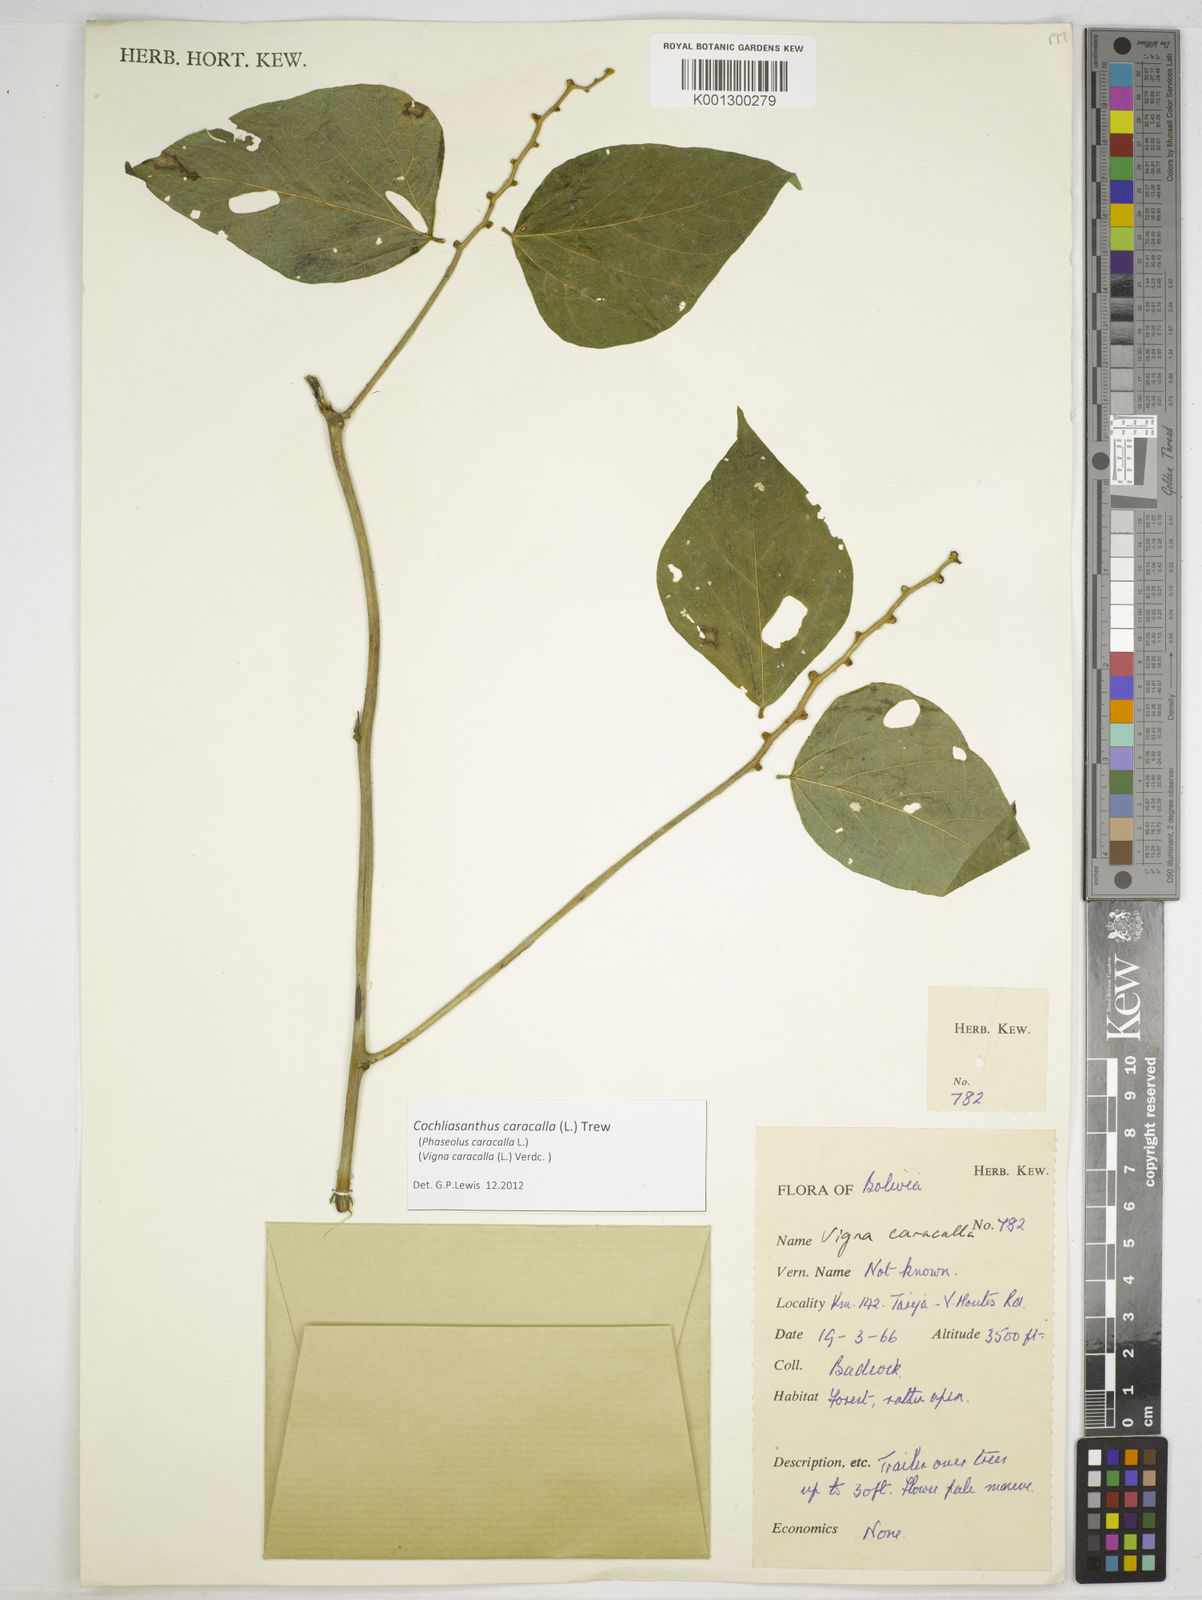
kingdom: Plantae
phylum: Tracheophyta
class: Magnoliopsida
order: Fabales
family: Fabaceae
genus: Cochliasanthus
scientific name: Cochliasanthus caracalla
